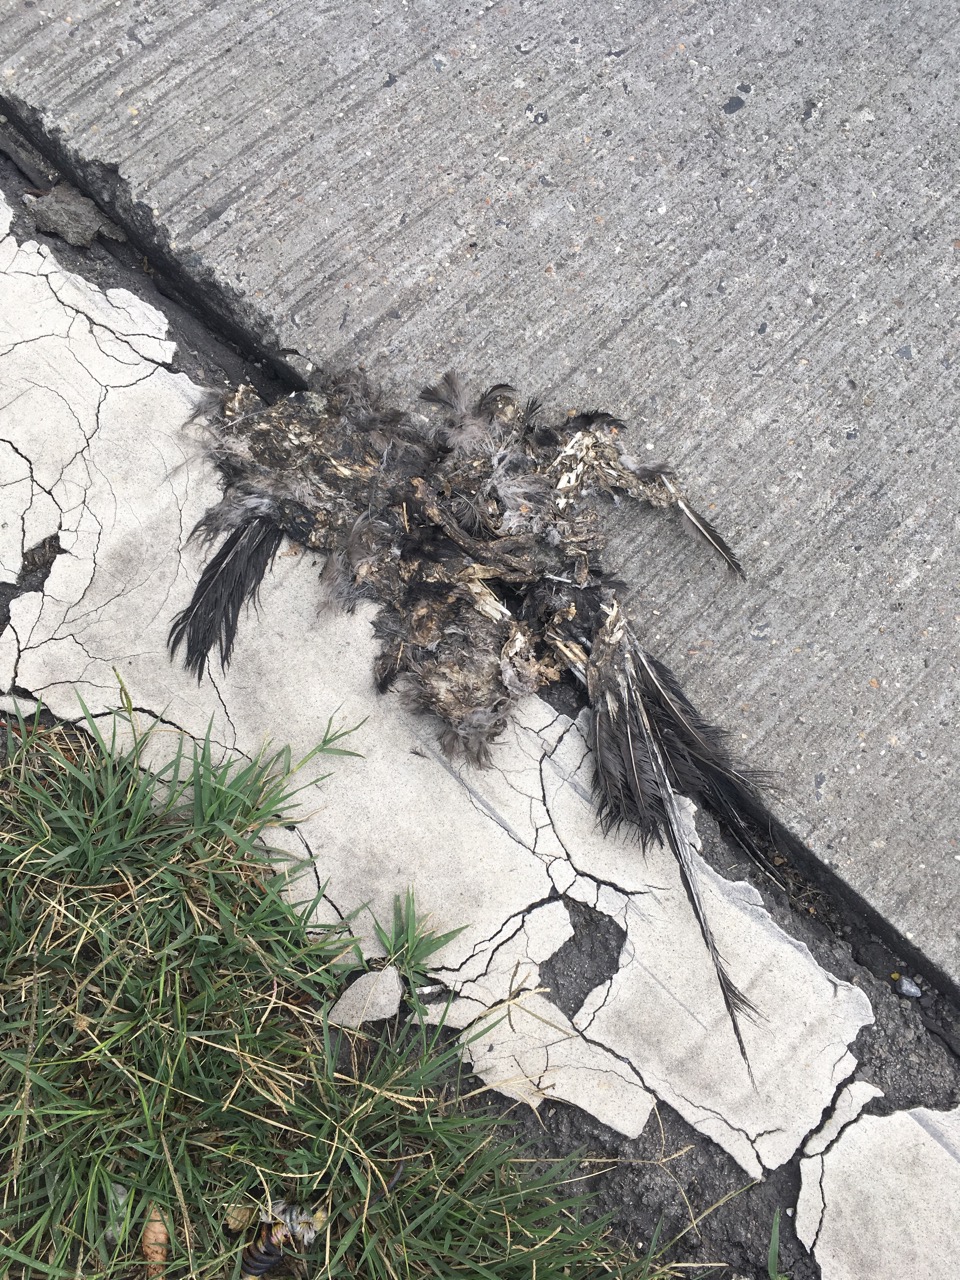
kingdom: Animalia
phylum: Chordata
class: Aves
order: Passeriformes
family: Corvidae
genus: Corvus
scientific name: Corvus
